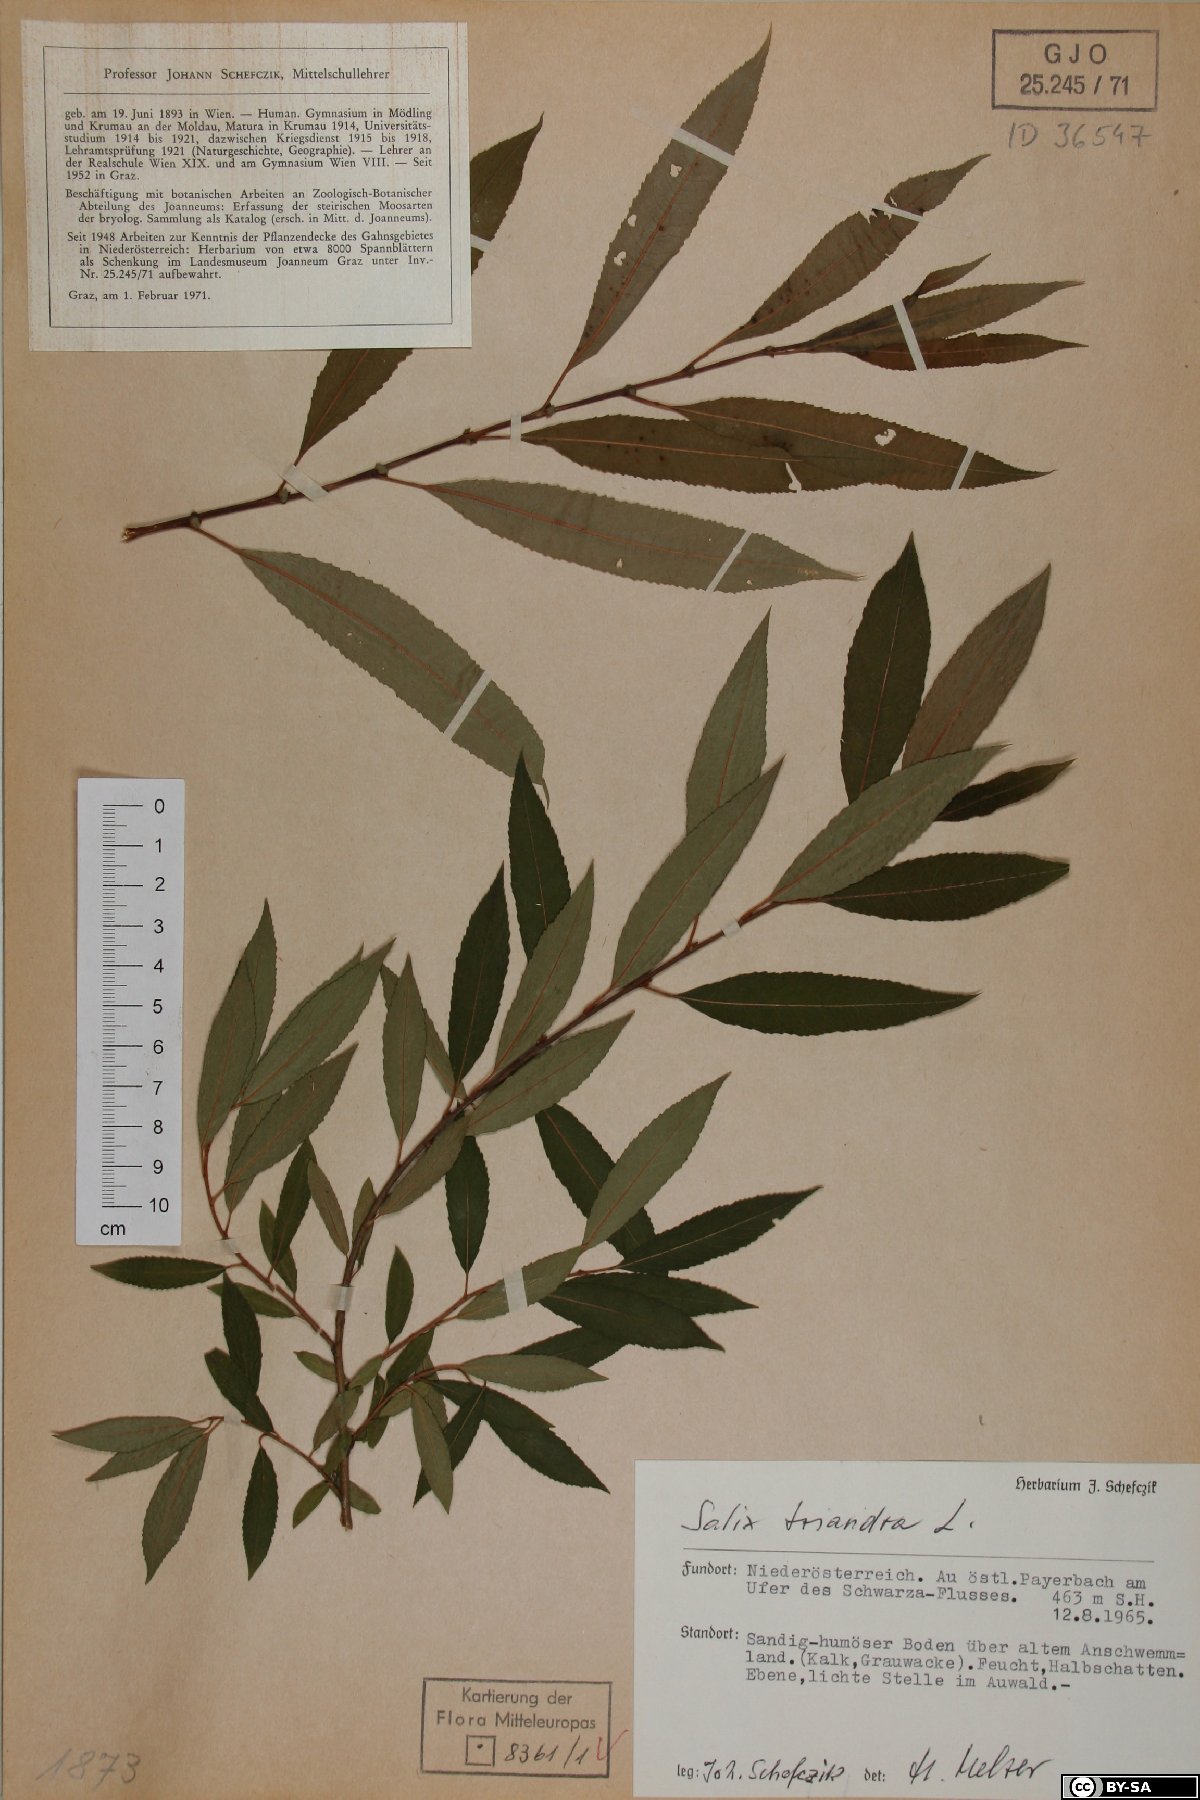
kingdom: Plantae
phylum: Tracheophyta
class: Magnoliopsida
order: Malpighiales
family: Salicaceae
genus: Salix
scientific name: Salix triandra
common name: Almond willow
